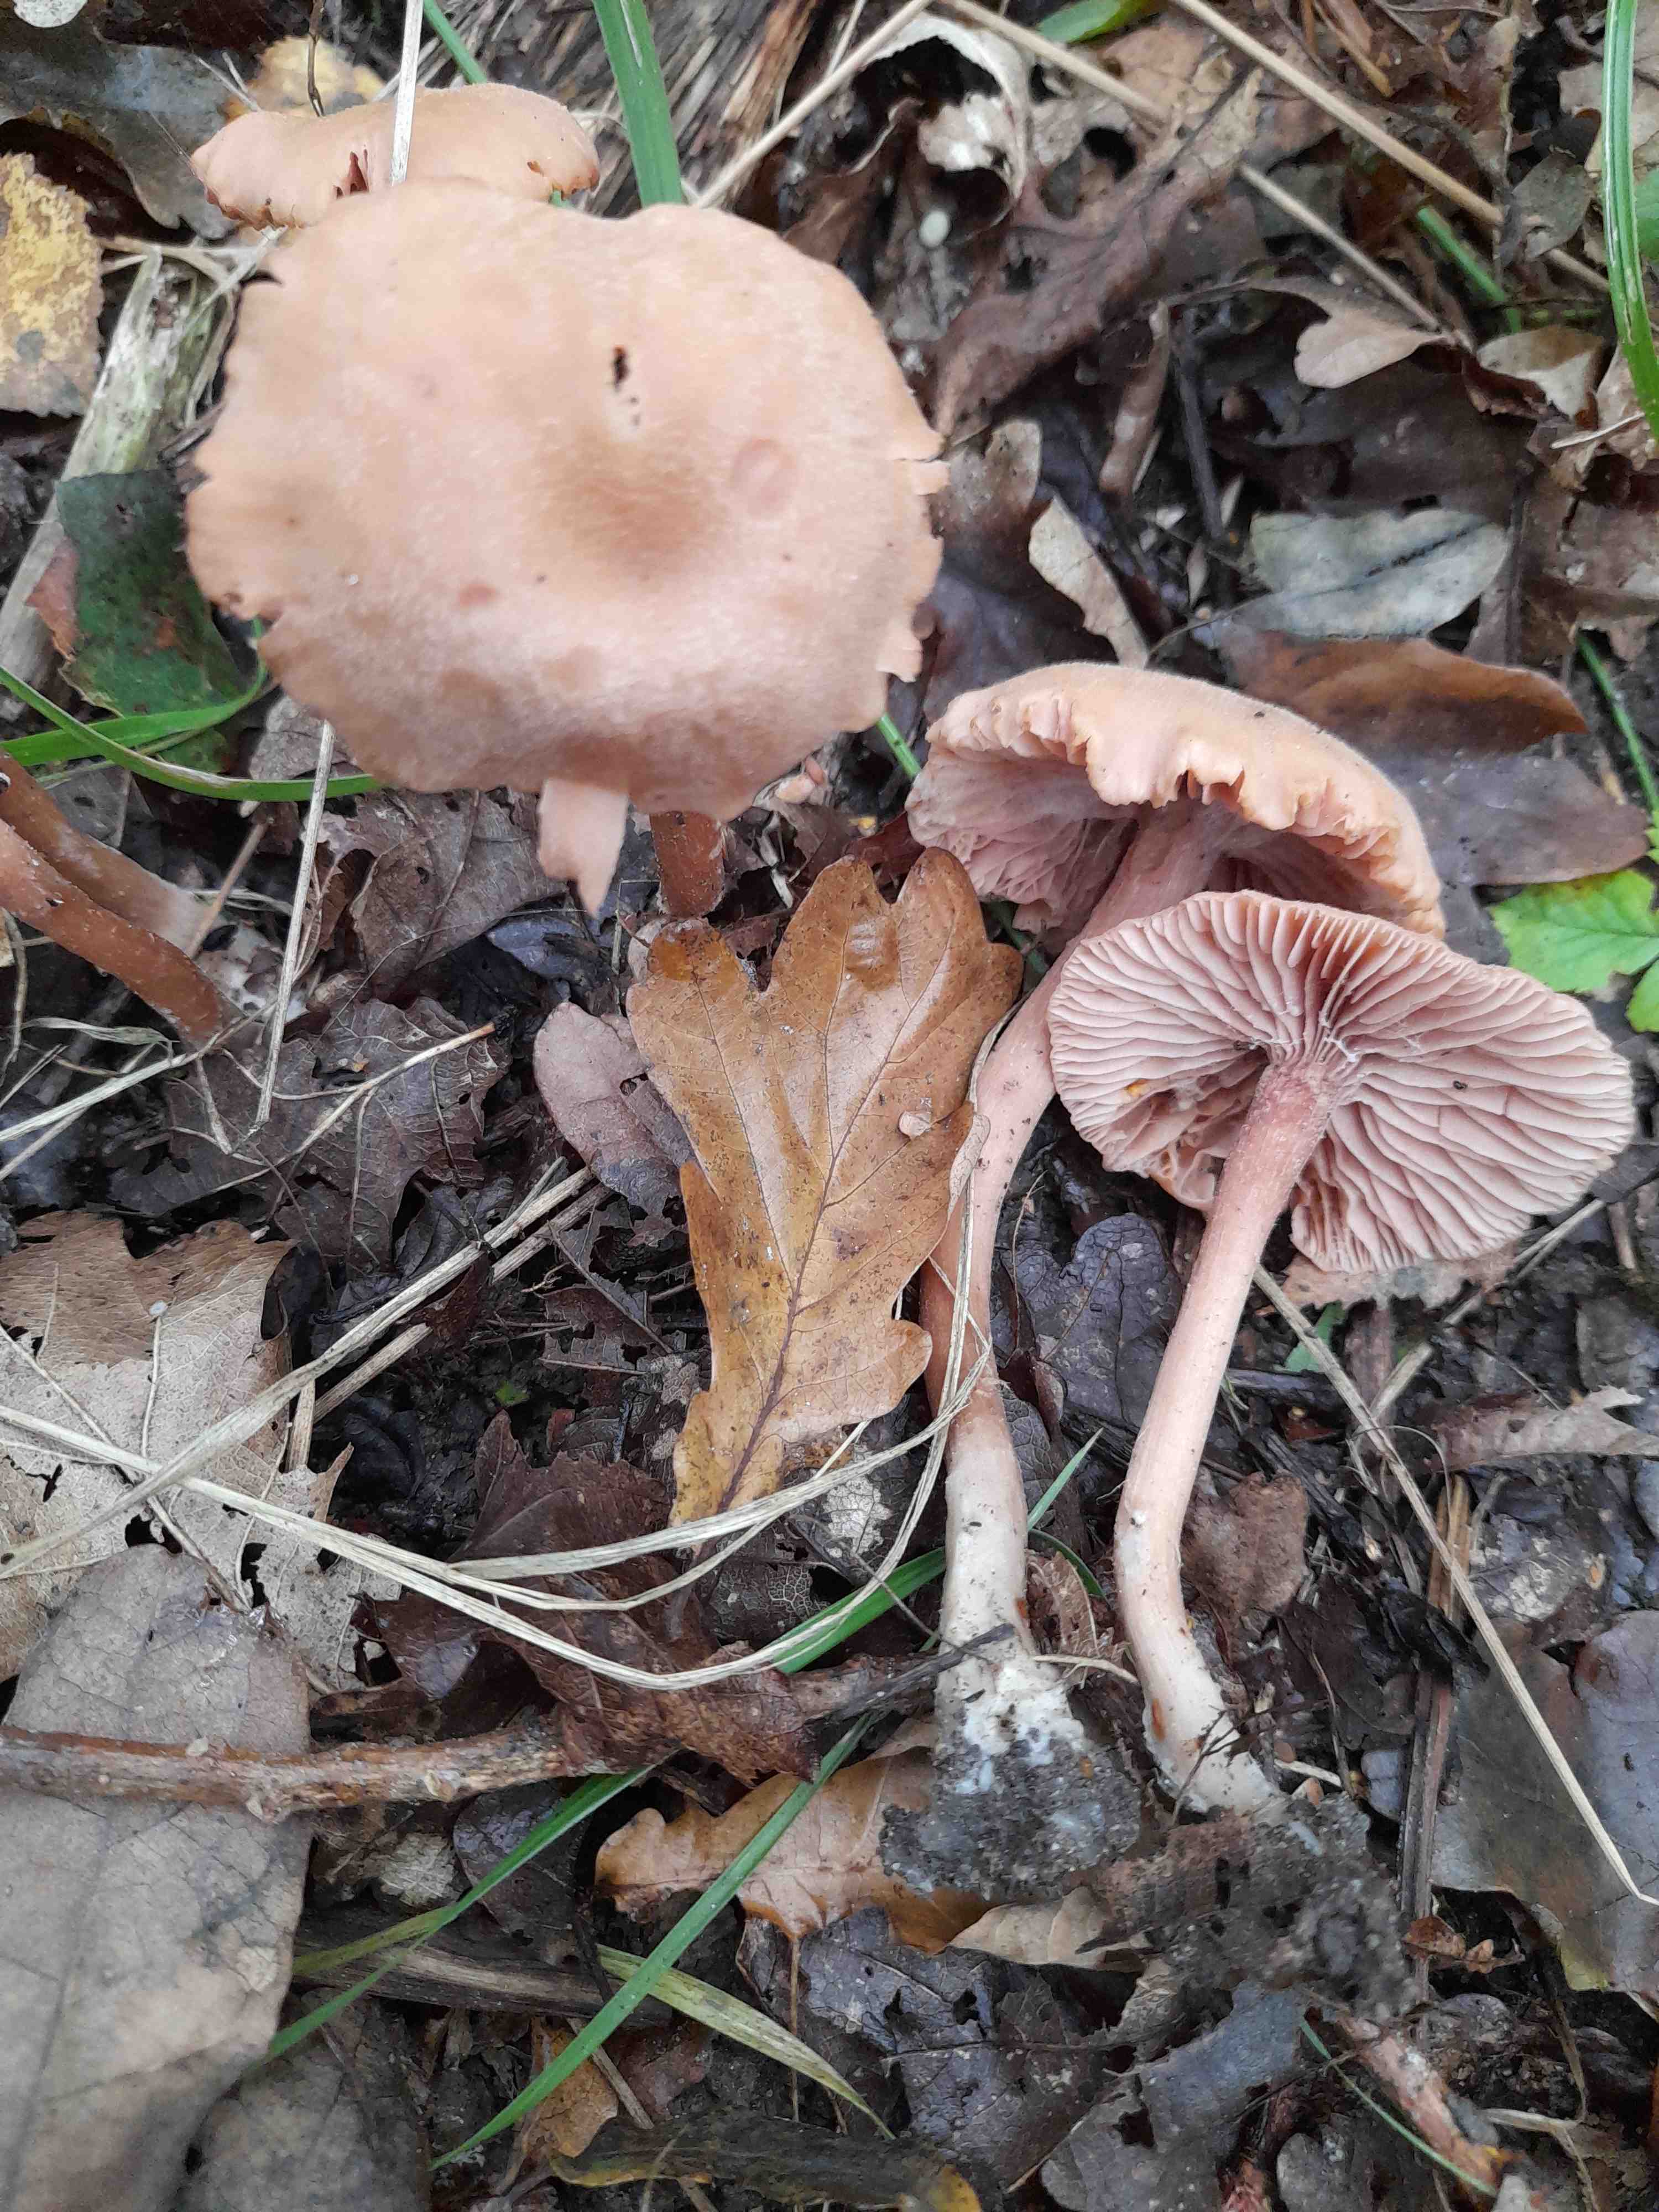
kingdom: Fungi
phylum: Basidiomycota
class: Agaricomycetes
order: Agaricales
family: Hydnangiaceae
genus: Laccaria
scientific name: Laccaria proxima
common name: stor ametysthat
